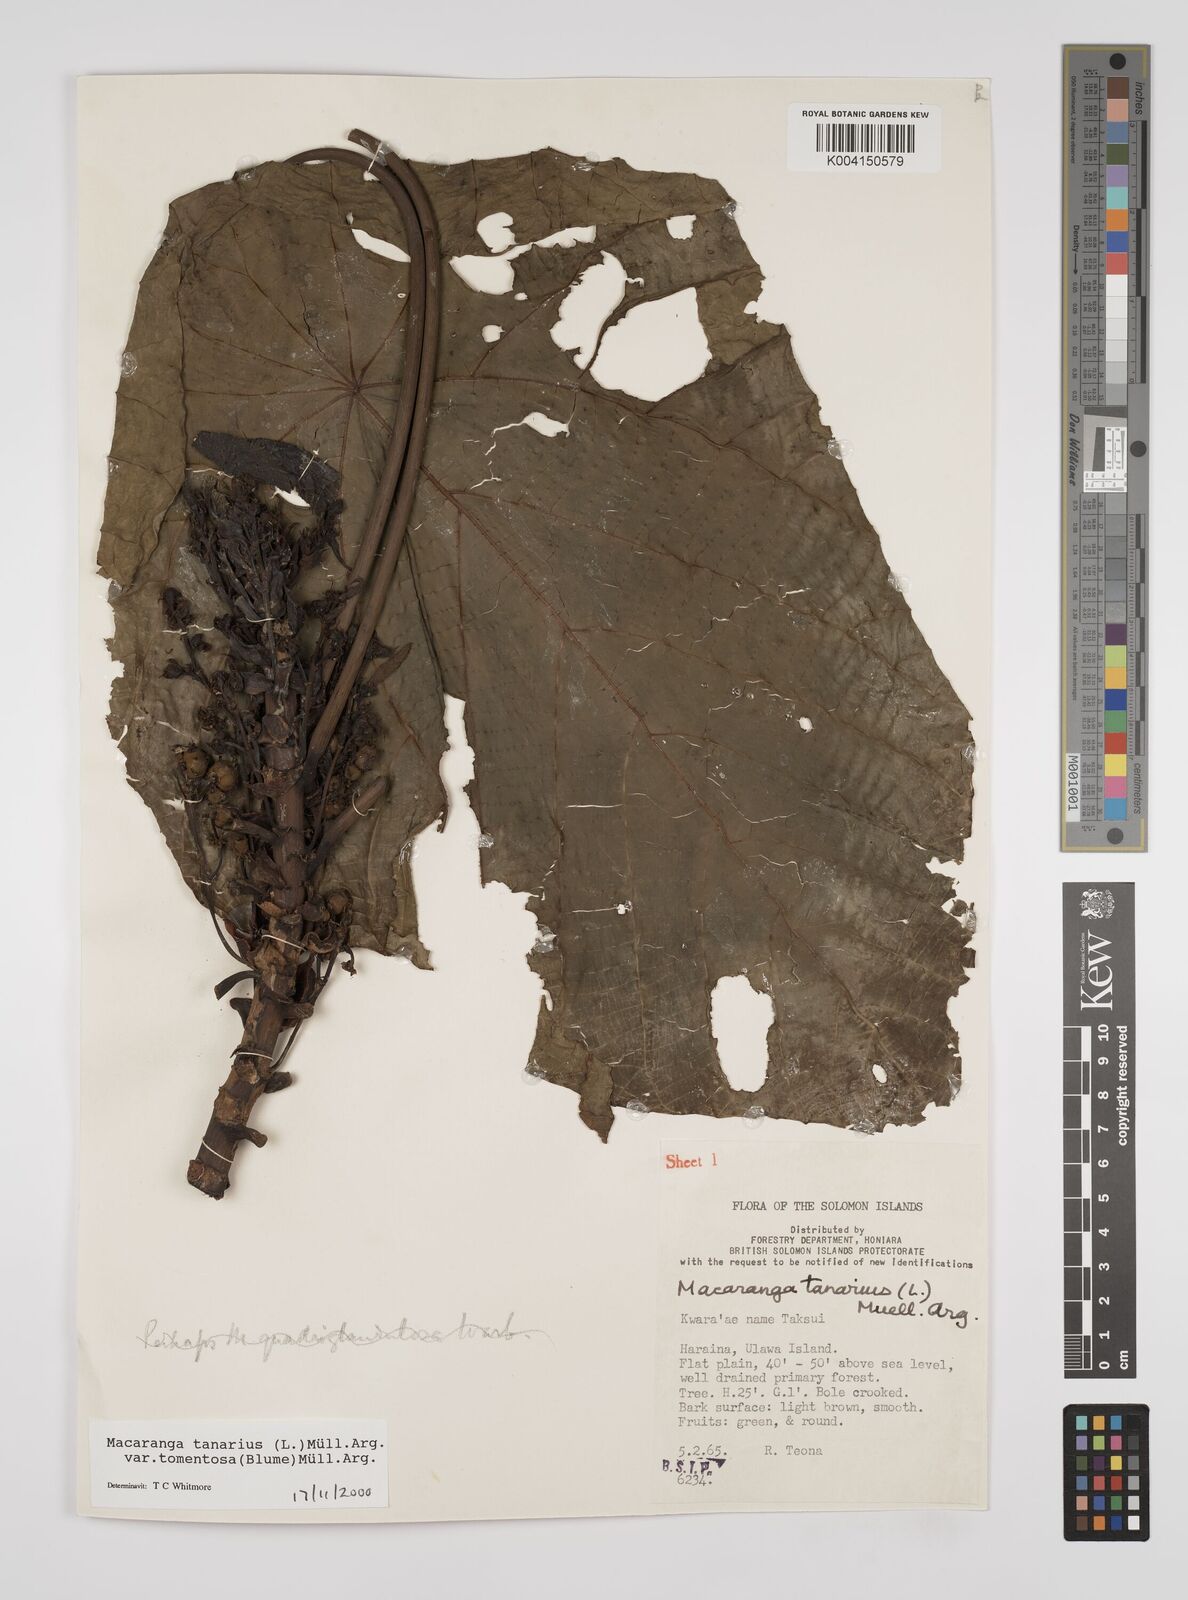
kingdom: Plantae
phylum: Tracheophyta
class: Magnoliopsida
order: Malpighiales
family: Euphorbiaceae
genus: Macaranga
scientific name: Macaranga tanarius
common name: Parasol leaf tree
